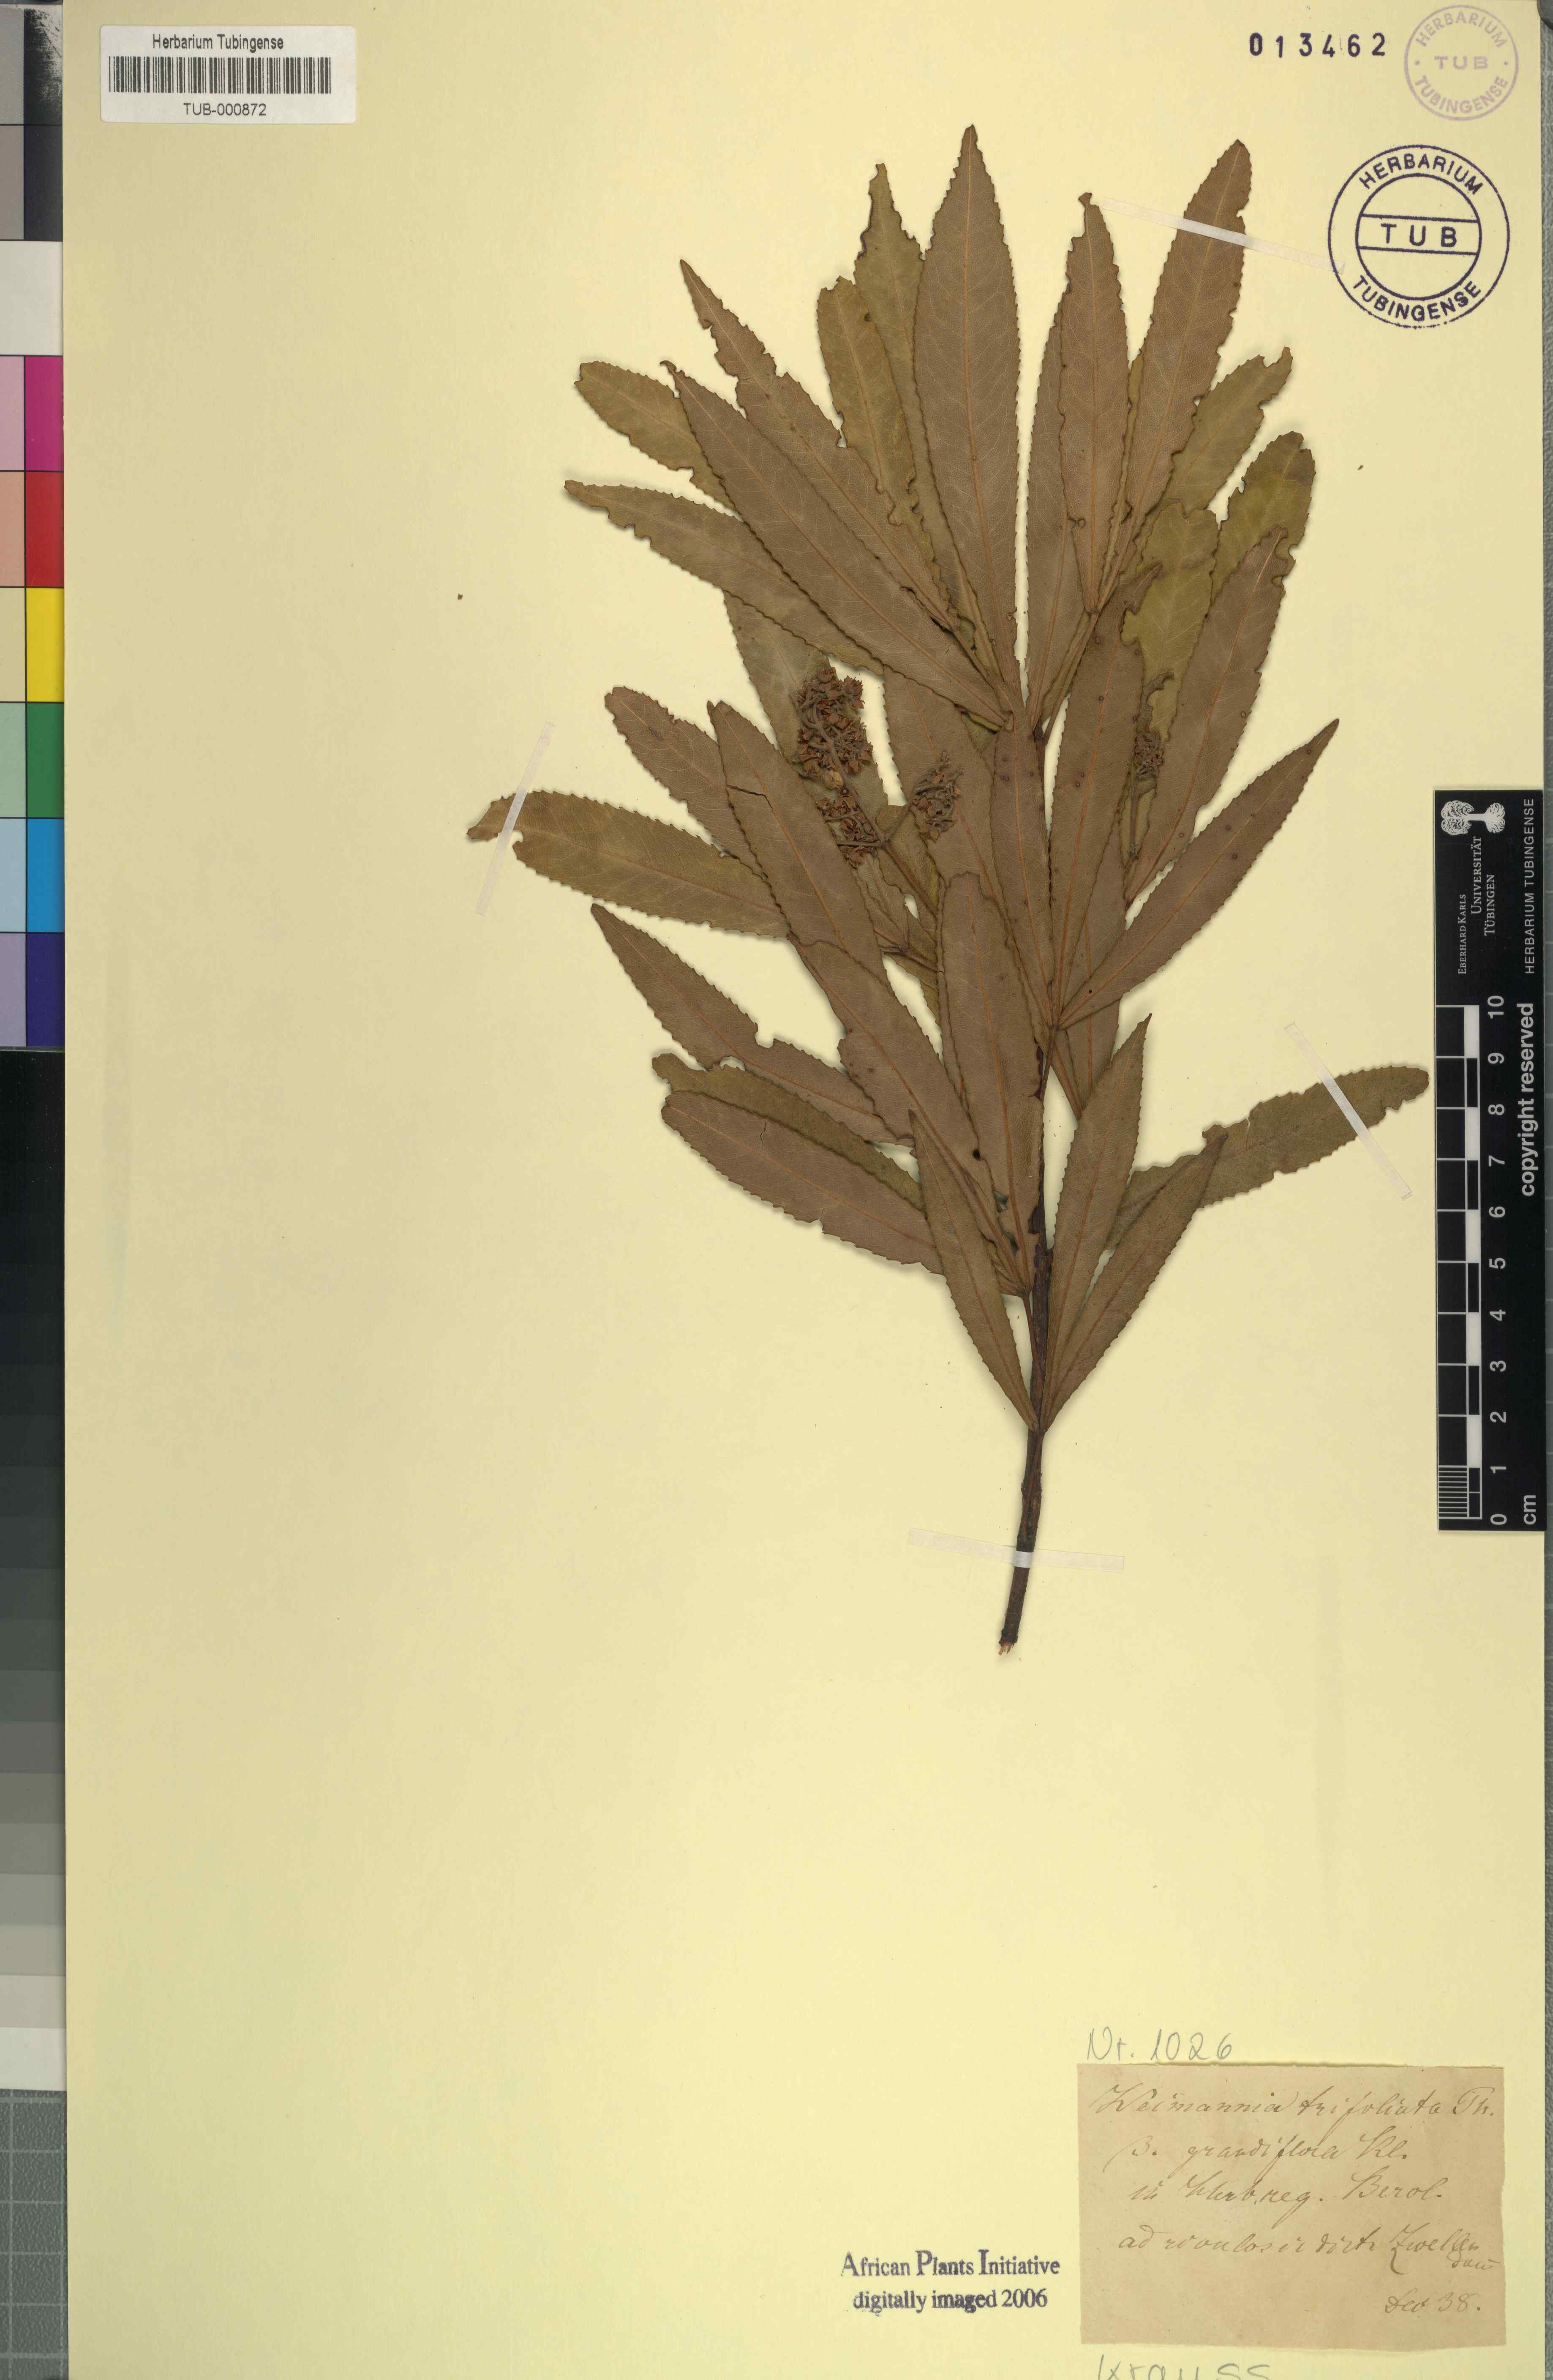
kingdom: Plantae
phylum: Tracheophyta
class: Magnoliopsida
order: Oxalidales
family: Cunoniaceae
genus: Platylophus
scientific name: Platylophus trifoliatus
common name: White alder
